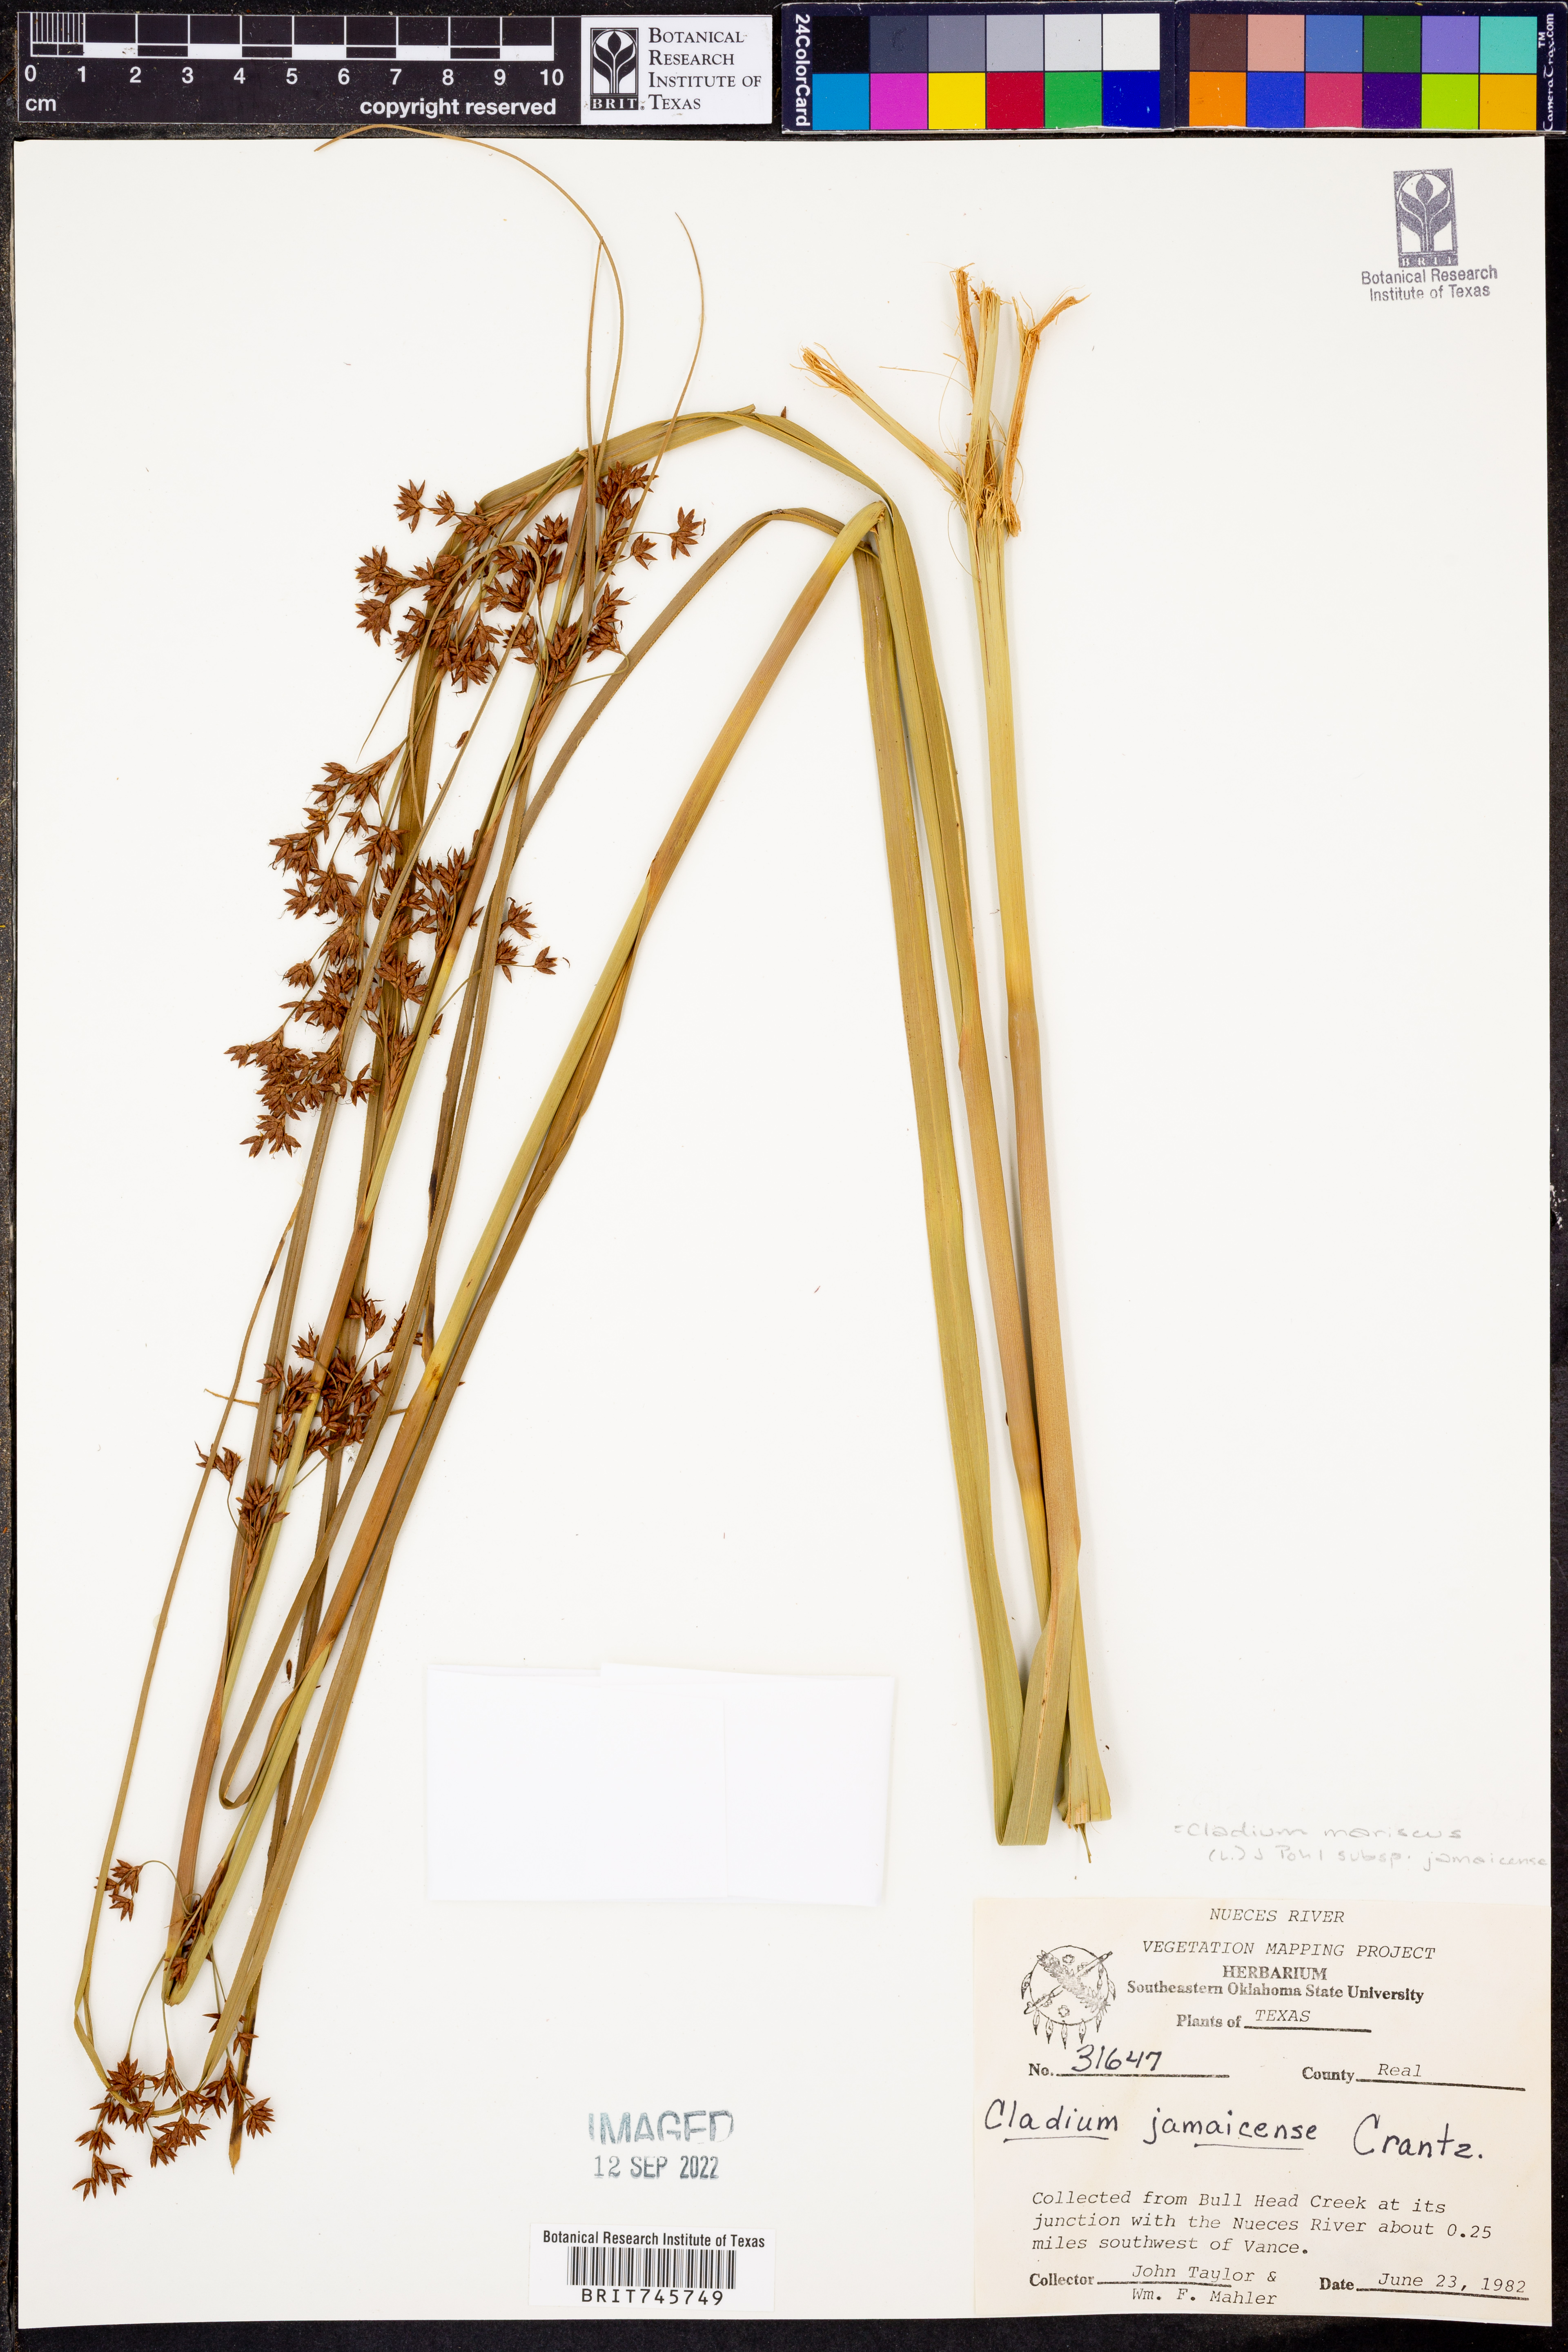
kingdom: Plantae
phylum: Tracheophyta
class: Liliopsida
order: Poales
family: Cyperaceae
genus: Cladium
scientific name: Cladium mariscus
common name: Great fen-sedge
